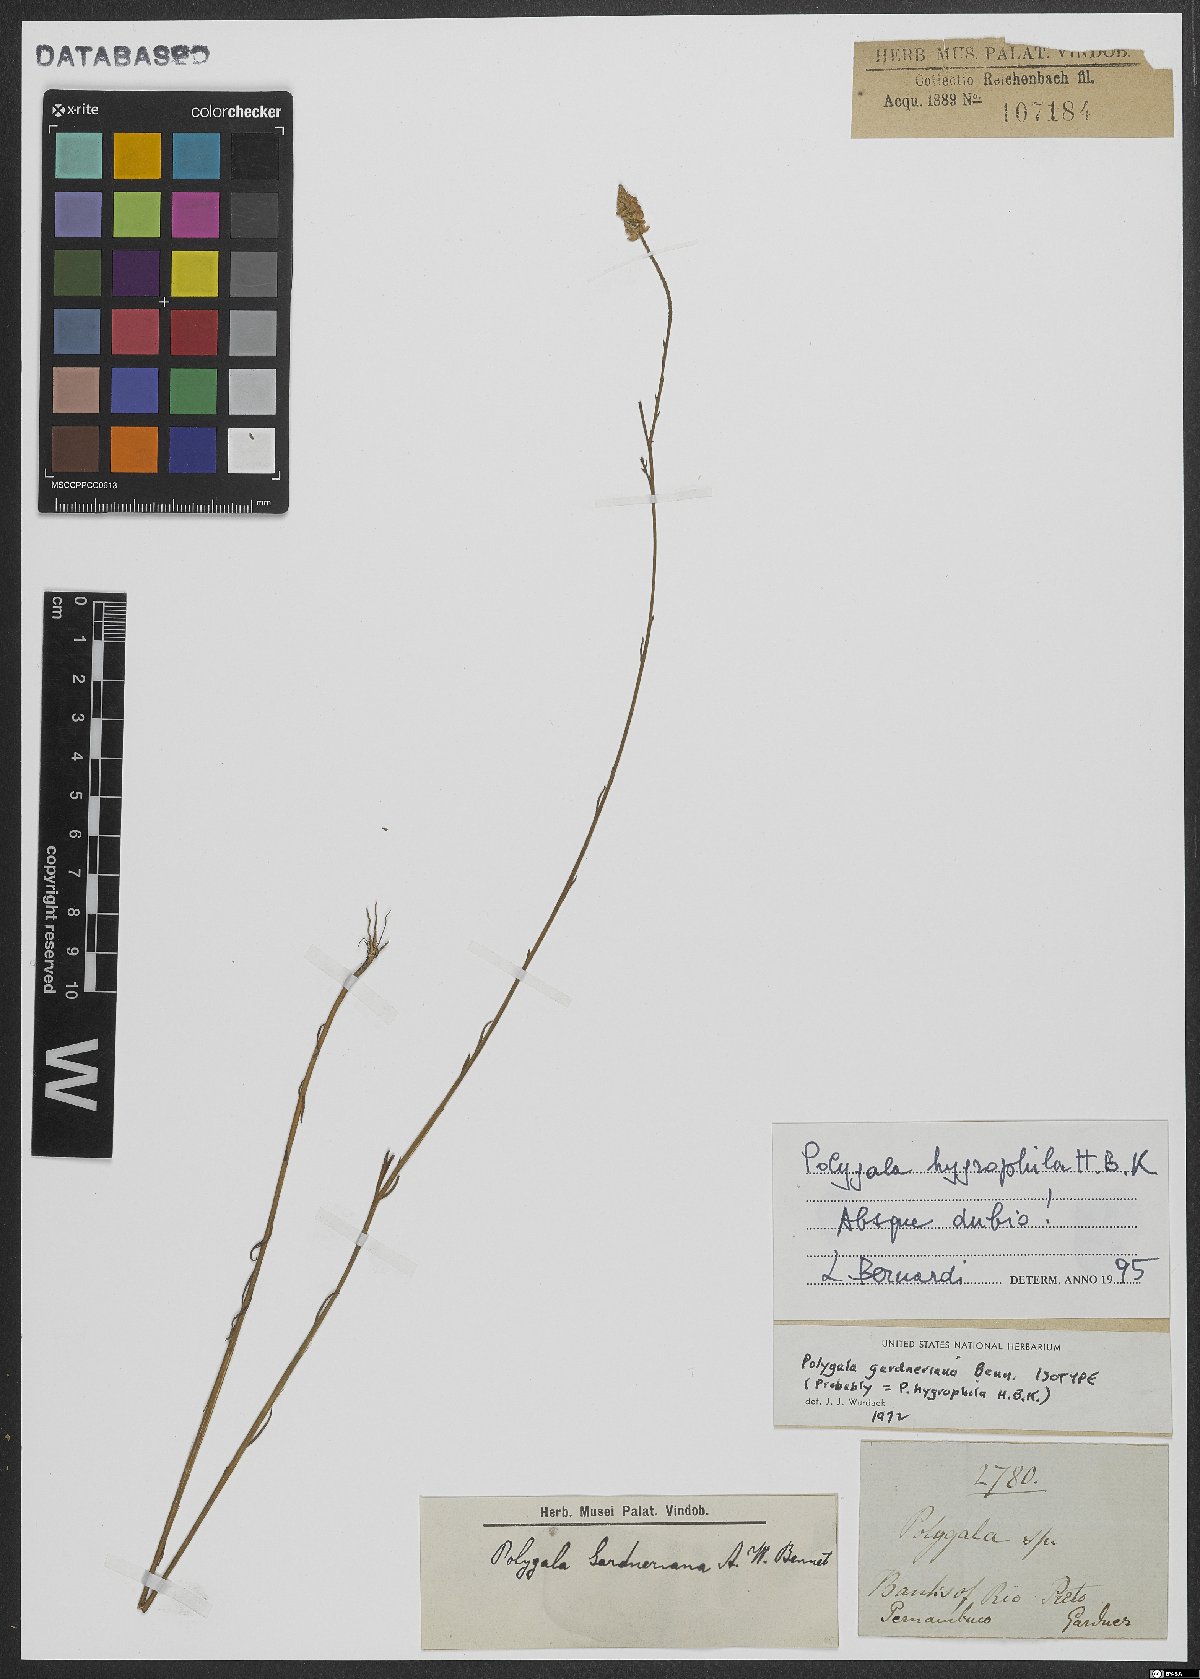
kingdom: Plantae
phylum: Tracheophyta
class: Magnoliopsida
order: Fabales
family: Polygalaceae
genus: Polygala
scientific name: Polygala hygrophila
